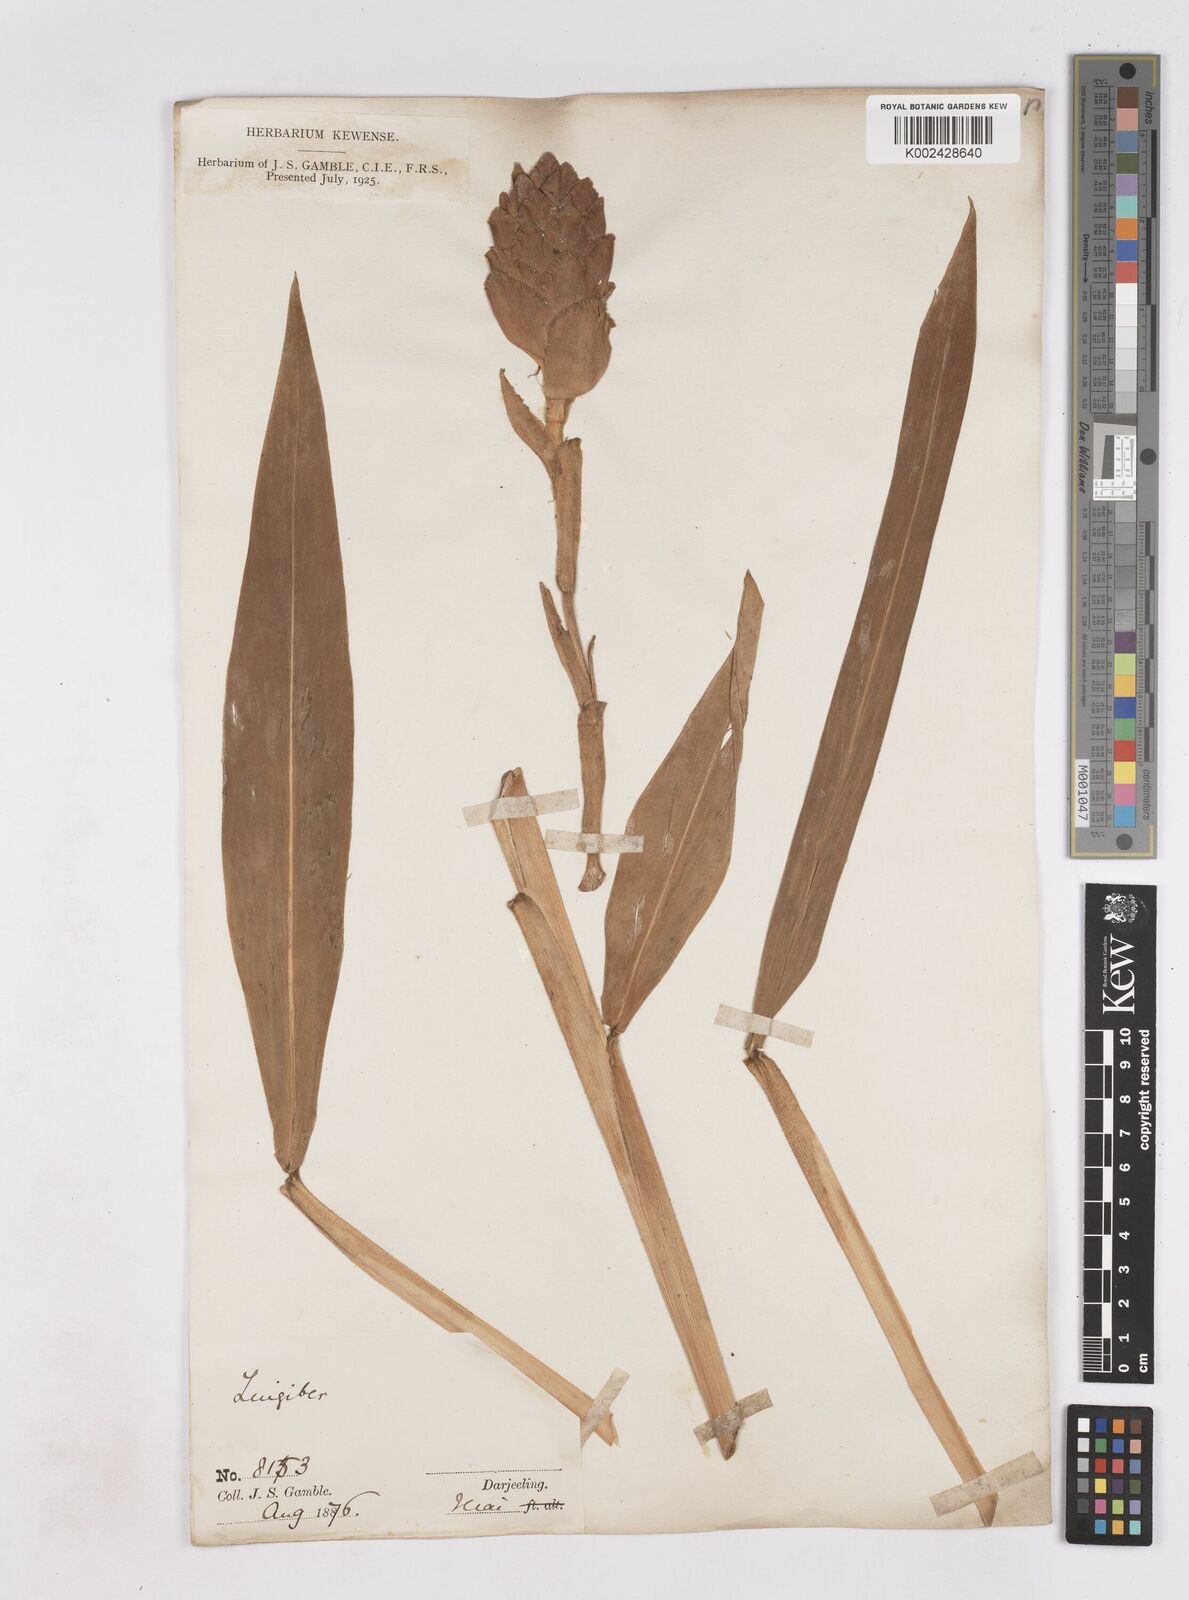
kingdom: Plantae
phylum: Tracheophyta
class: Liliopsida
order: Zingiberales
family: Zingiberaceae
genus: Zingiber
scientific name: Zingiber zerumbet
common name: Bitter ginger
